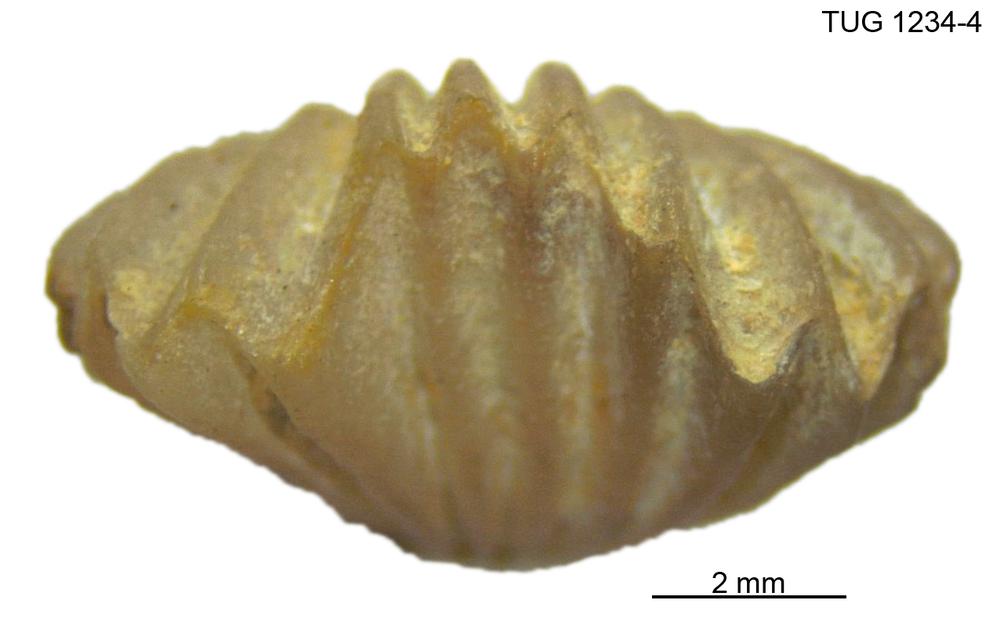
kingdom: Animalia
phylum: Brachiopoda
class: Rhynchonellata
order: Rhynchonellida
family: Trigonirhynchiidae
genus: Rostricellula
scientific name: Rostricellula nobilis
